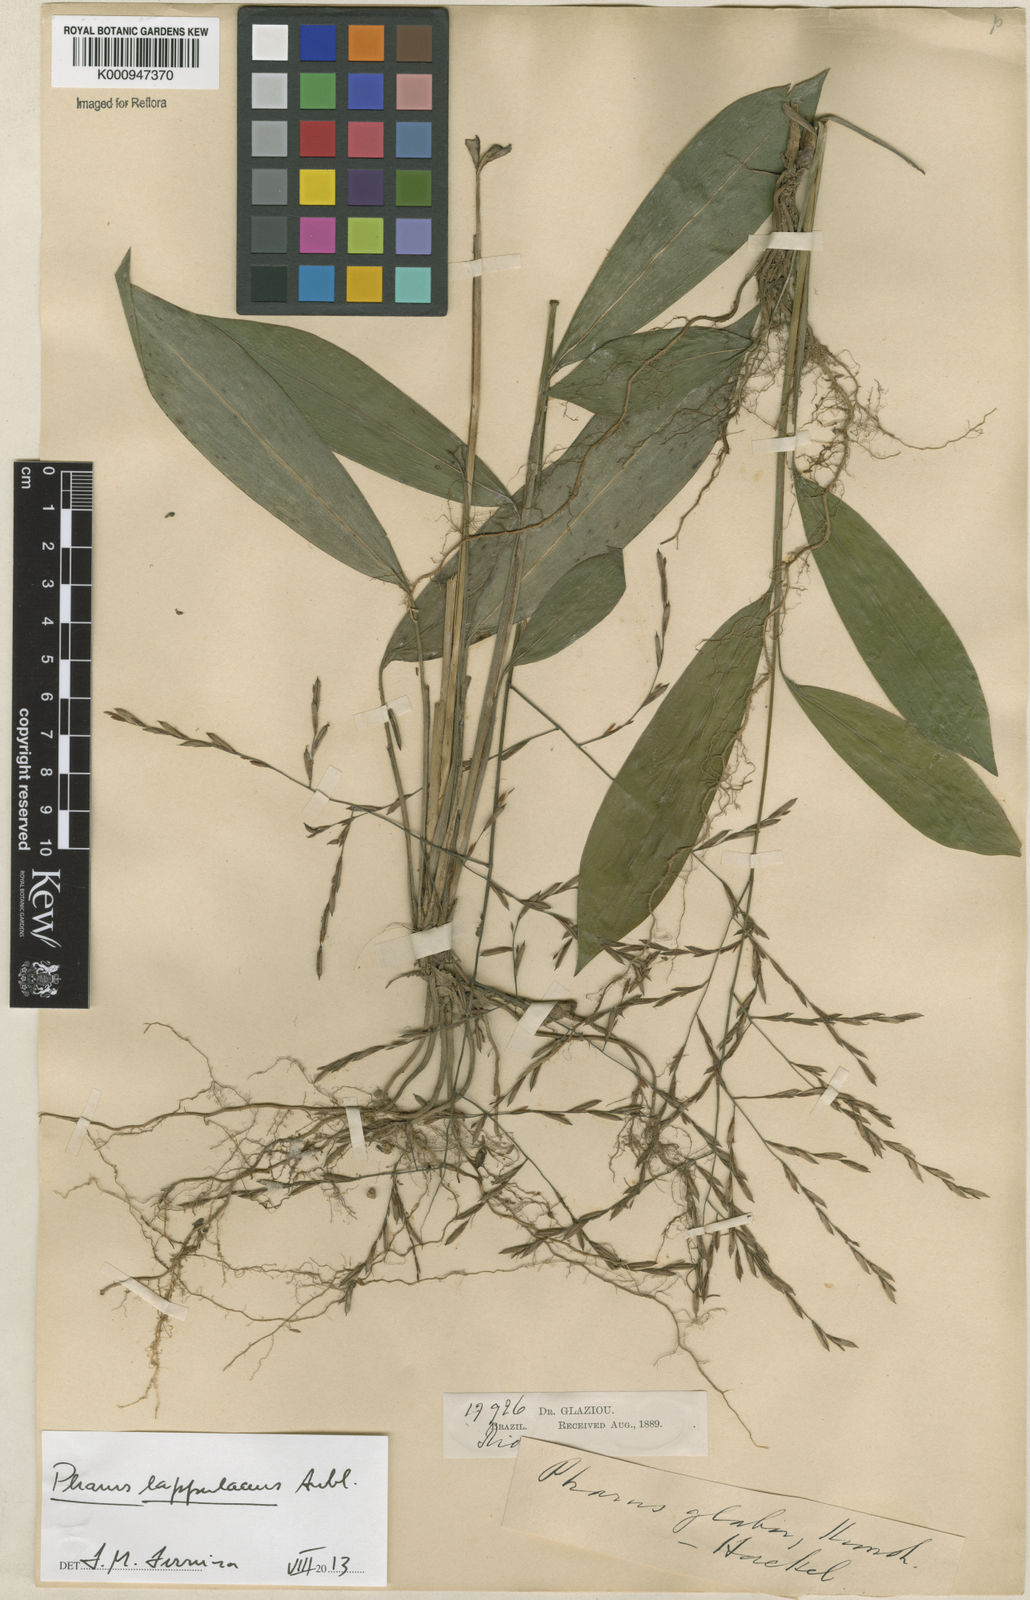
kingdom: Plantae
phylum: Tracheophyta
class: Liliopsida
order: Poales
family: Poaceae
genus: Pharus
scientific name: Pharus lappulaceus
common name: Creeping leafstalk grass
